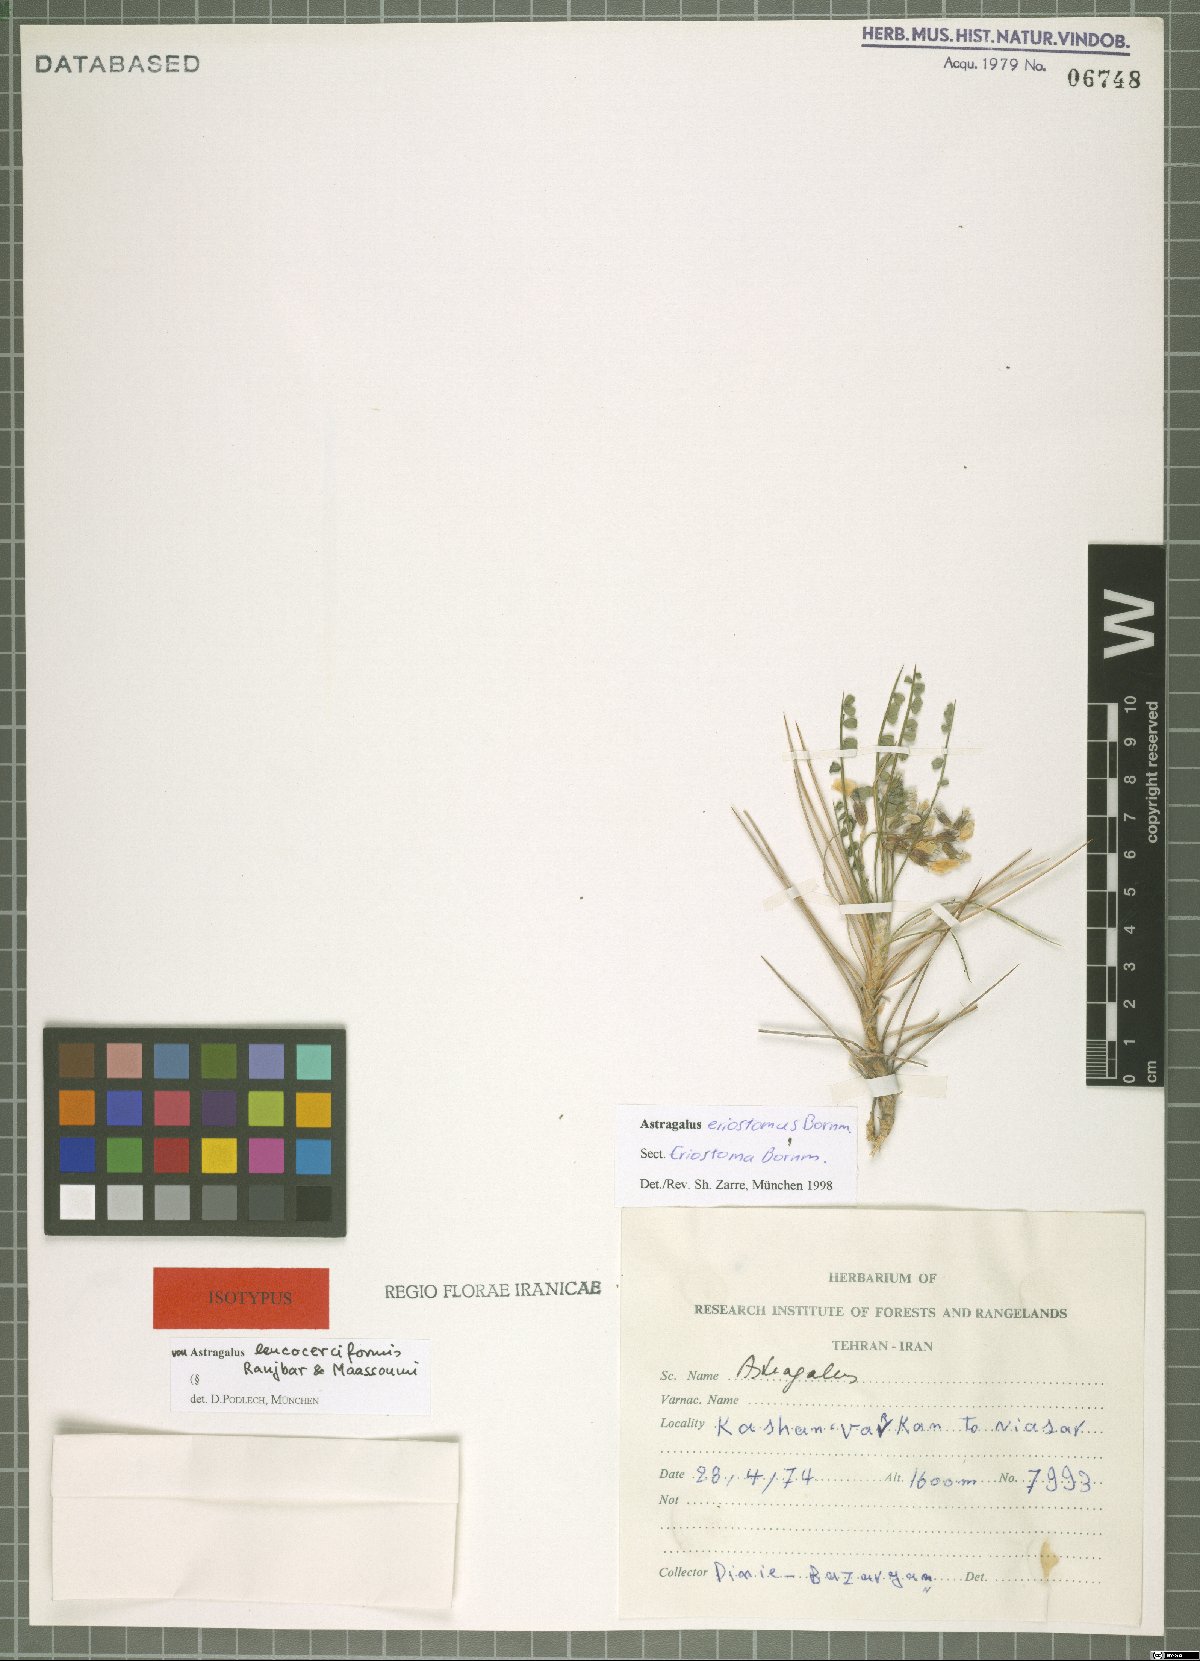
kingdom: Plantae
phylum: Tracheophyta
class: Magnoliopsida
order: Fabales
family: Fabaceae
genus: Astragalus
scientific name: Astragalus eriostomus
